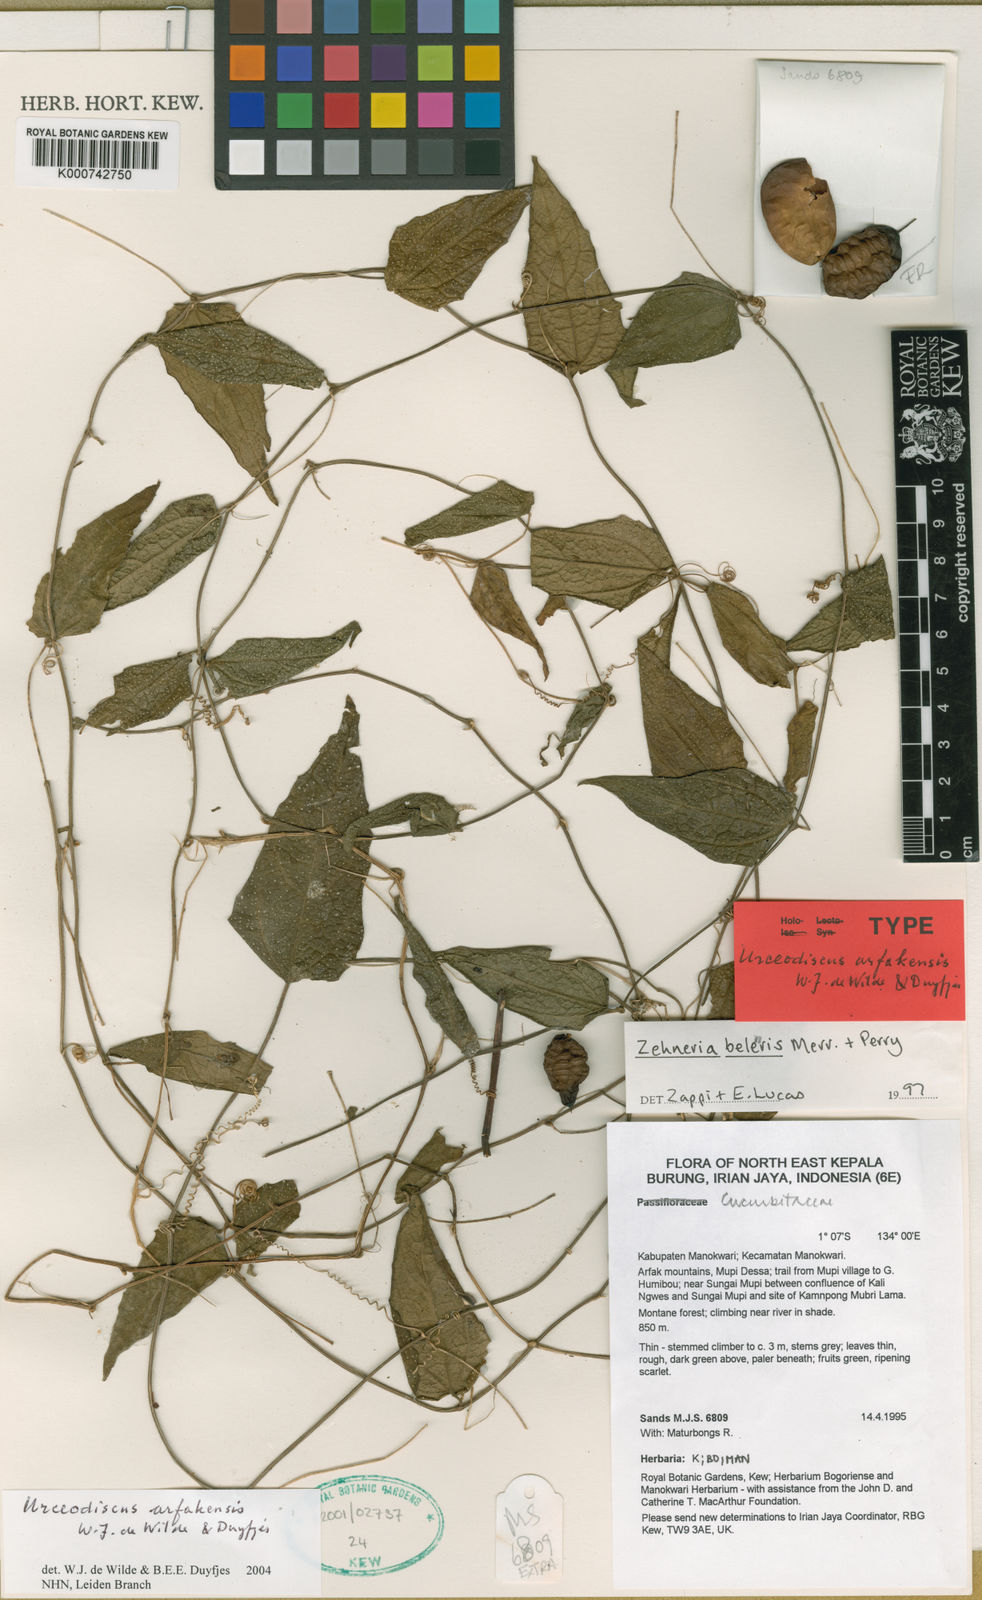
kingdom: Plantae
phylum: Tracheophyta
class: Magnoliopsida
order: Cucurbitales
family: Cucurbitaceae
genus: Papuasicyos
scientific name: Papuasicyos arfakensis
